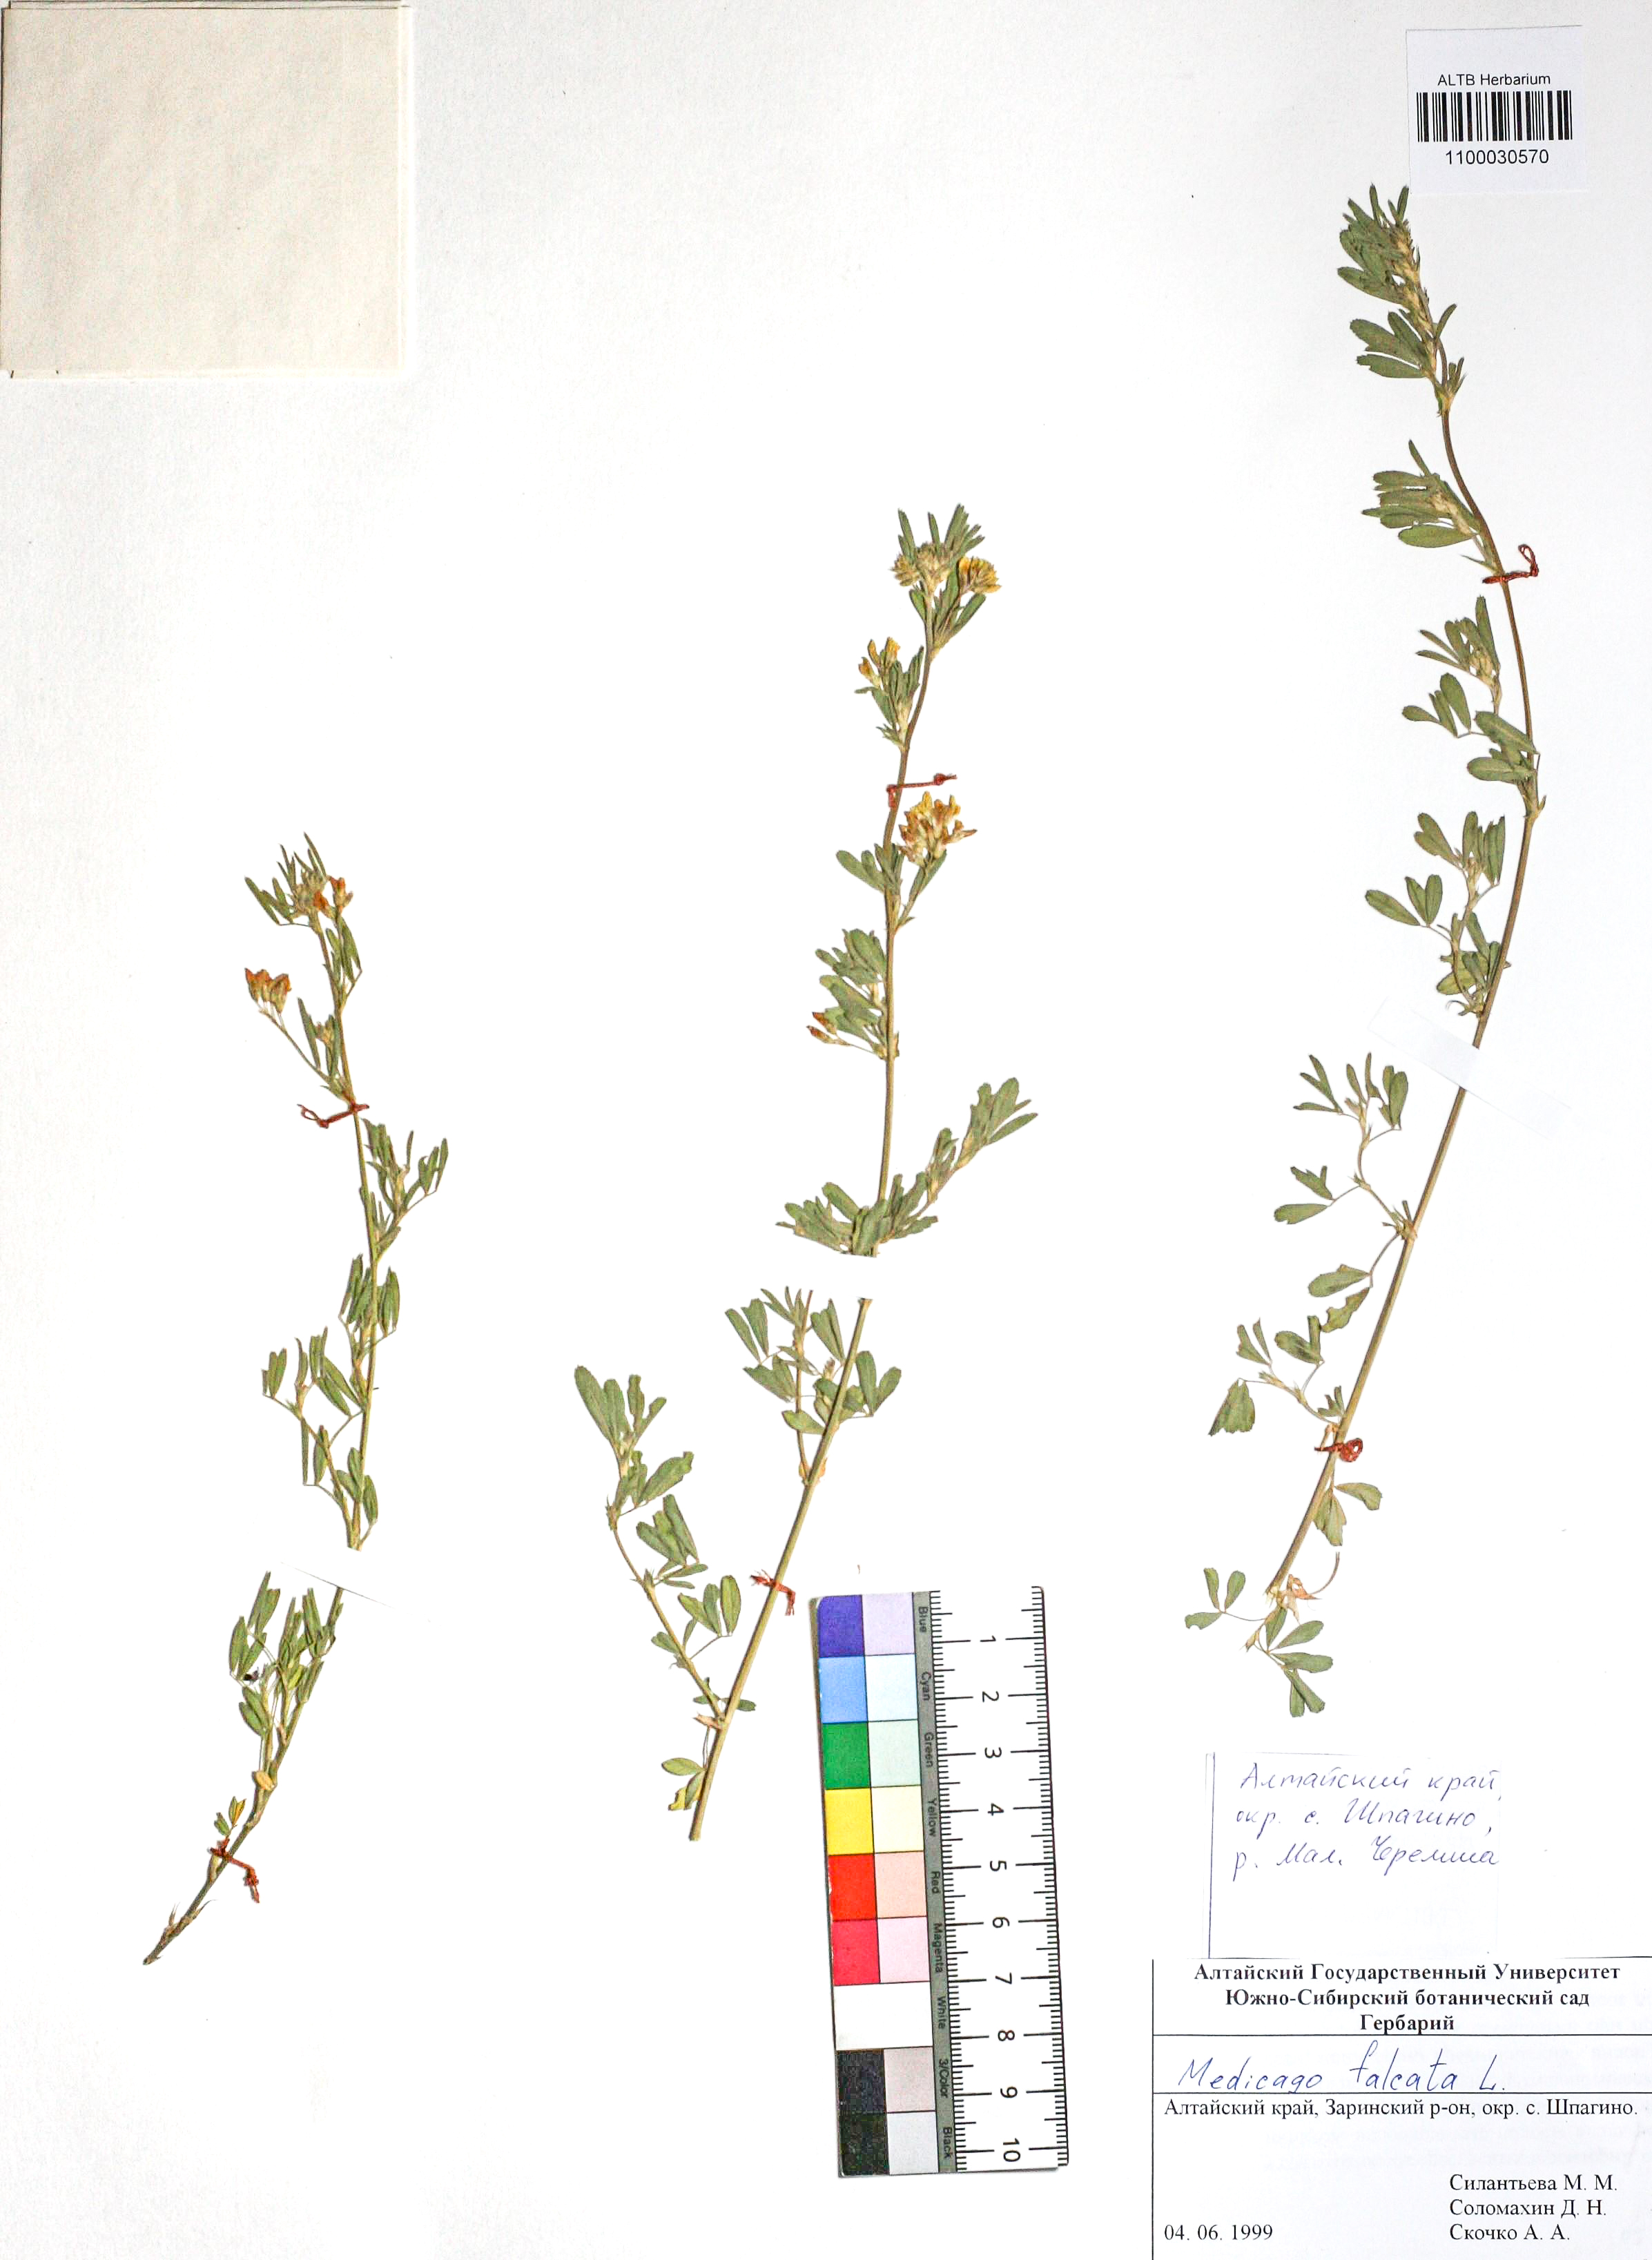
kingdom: Plantae
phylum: Tracheophyta
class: Magnoliopsida
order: Fabales
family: Fabaceae
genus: Medicago
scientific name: Medicago falcata
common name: Sickle medick
